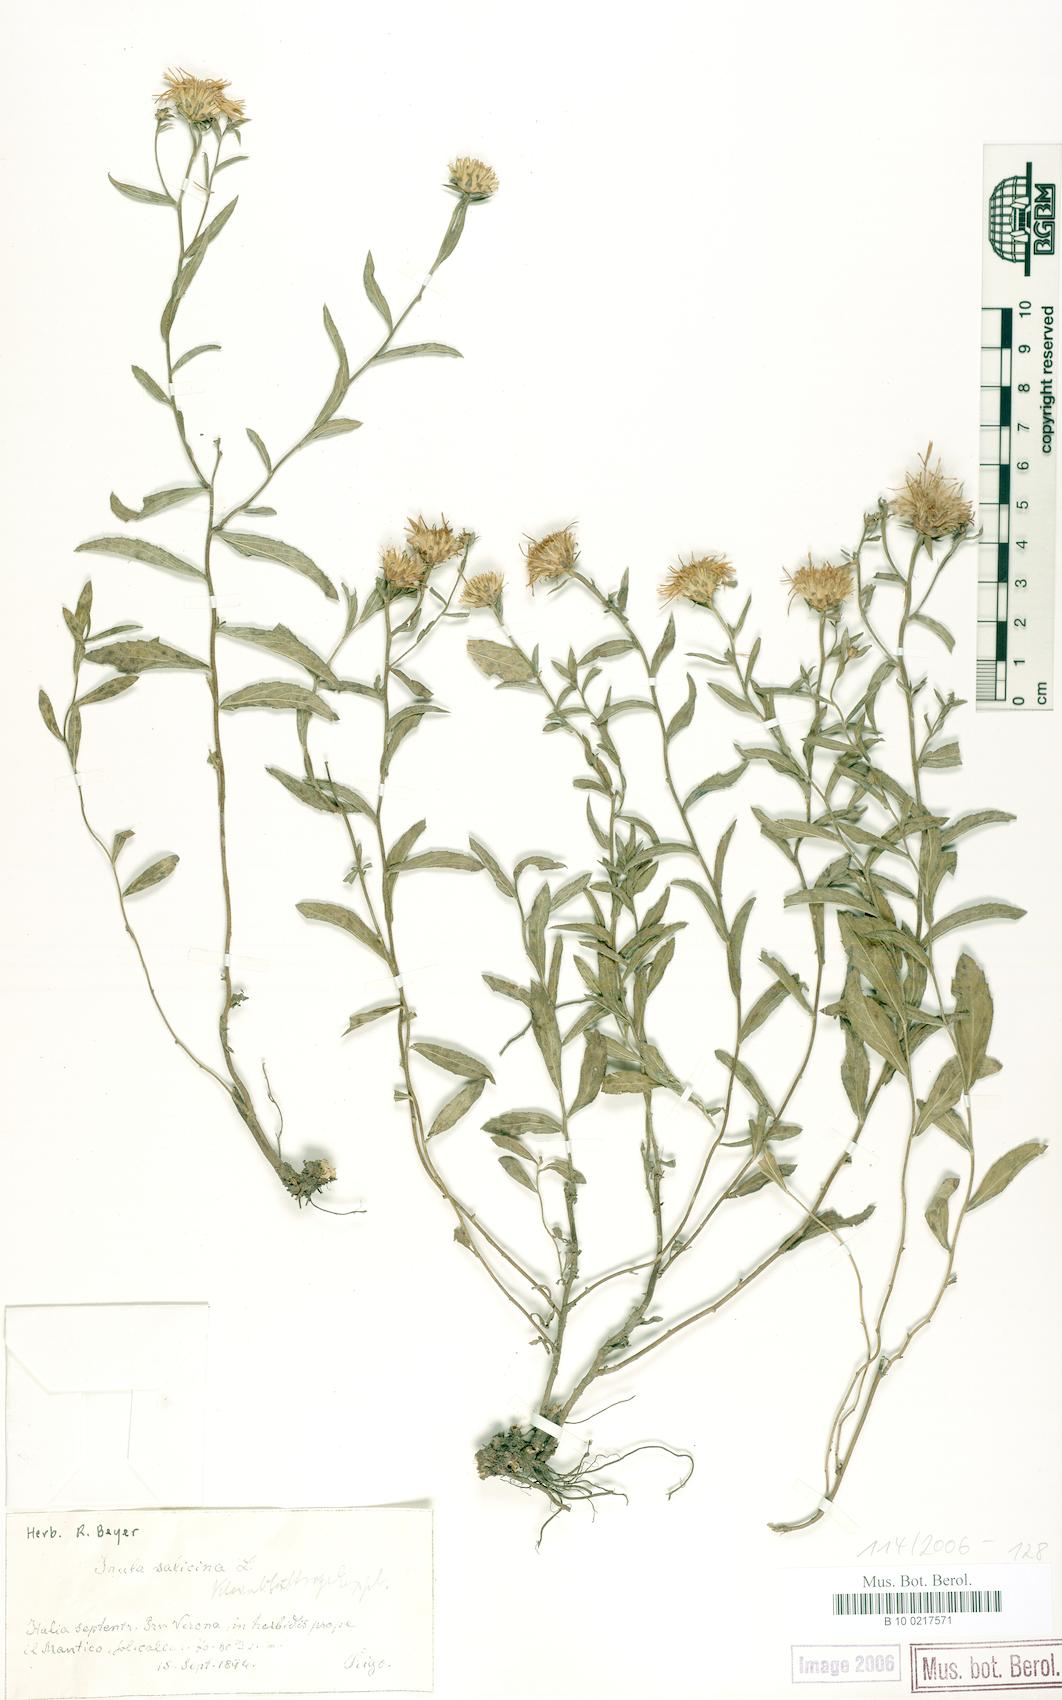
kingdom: Plantae
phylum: Tracheophyta
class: Magnoliopsida
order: Asterales
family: Asteraceae
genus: Pentanema
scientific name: Pentanema spiraeifolium
